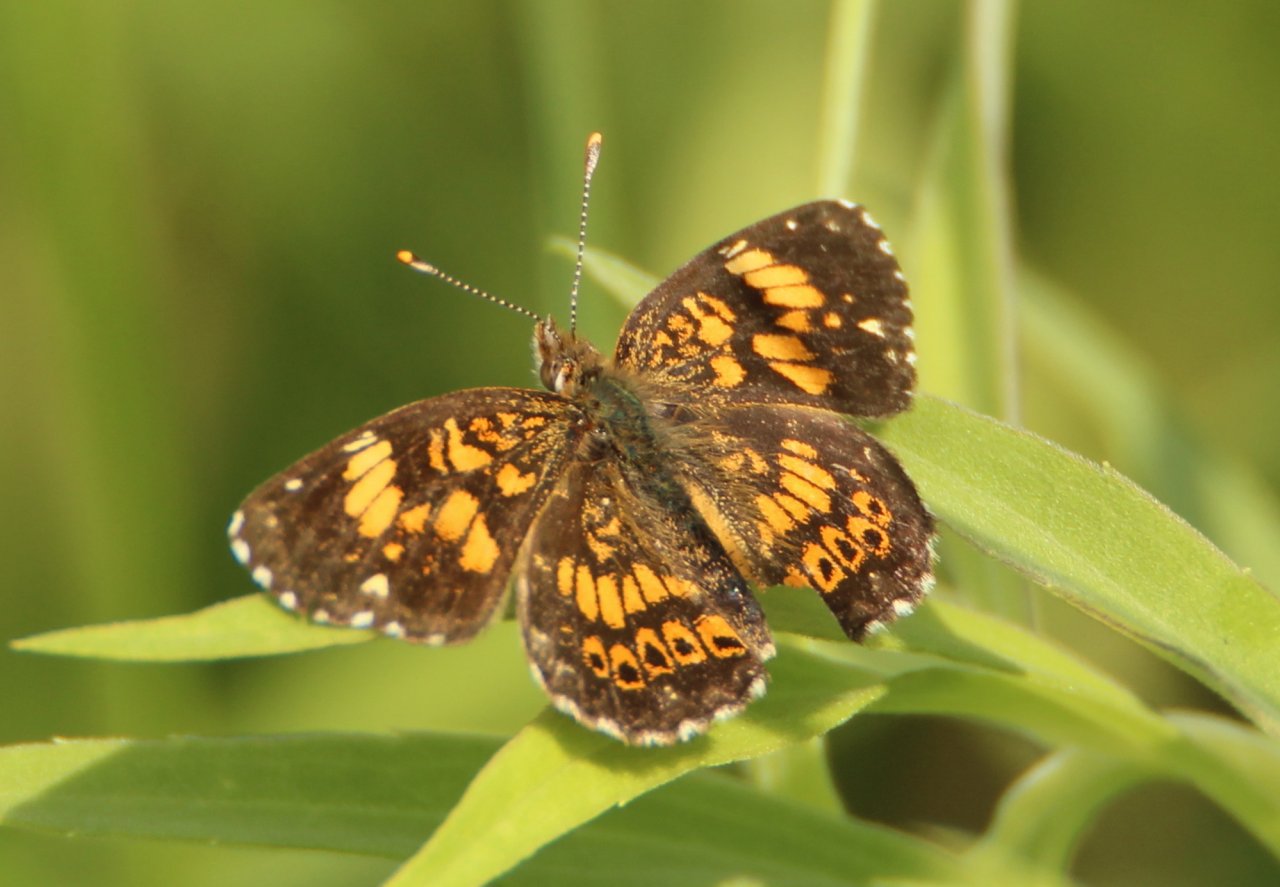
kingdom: Animalia
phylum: Arthropoda
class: Insecta
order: Lepidoptera
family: Nymphalidae
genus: Chlosyne
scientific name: Chlosyne gorgone
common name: Gorgone Checkerspot
